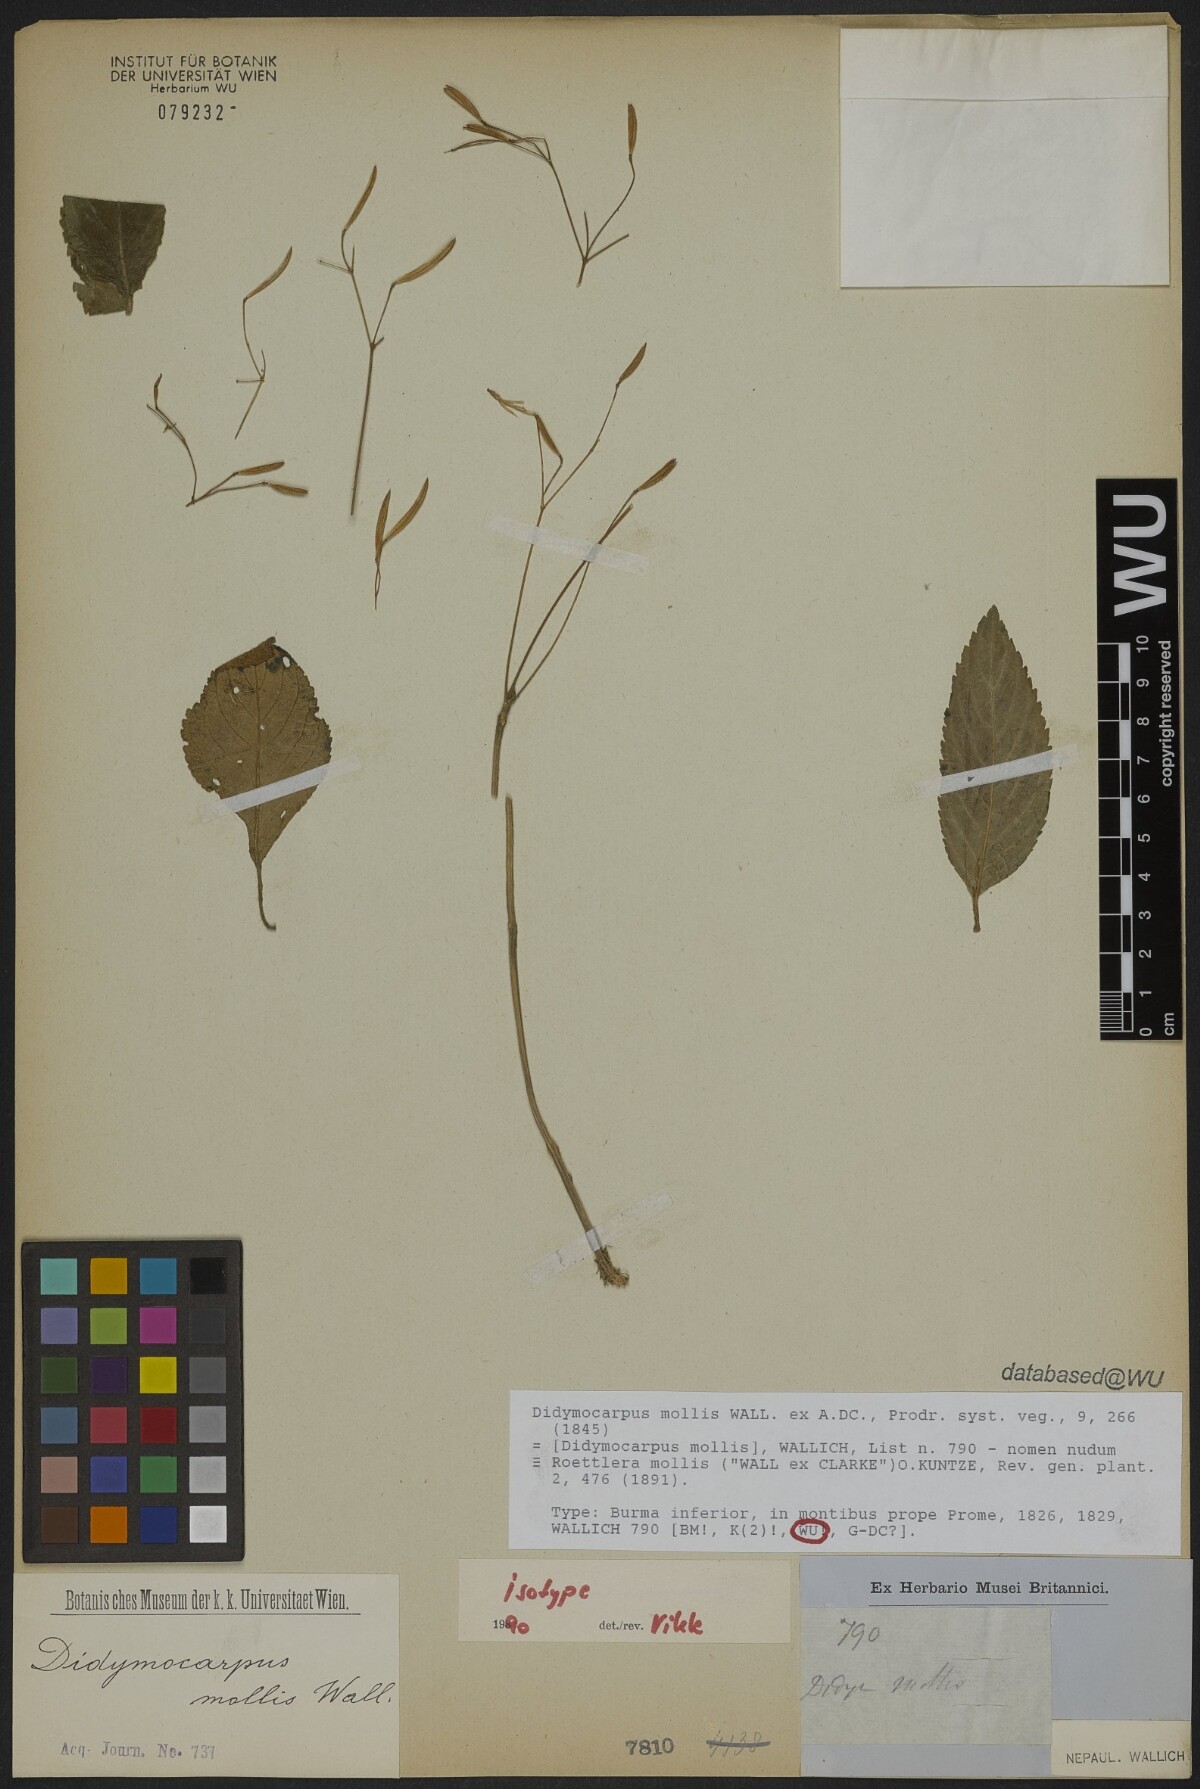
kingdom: Plantae
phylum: Tracheophyta
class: Magnoliopsida
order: Lamiales
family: Gesneriaceae
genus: Didymocarpus
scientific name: Didymocarpus mollis
